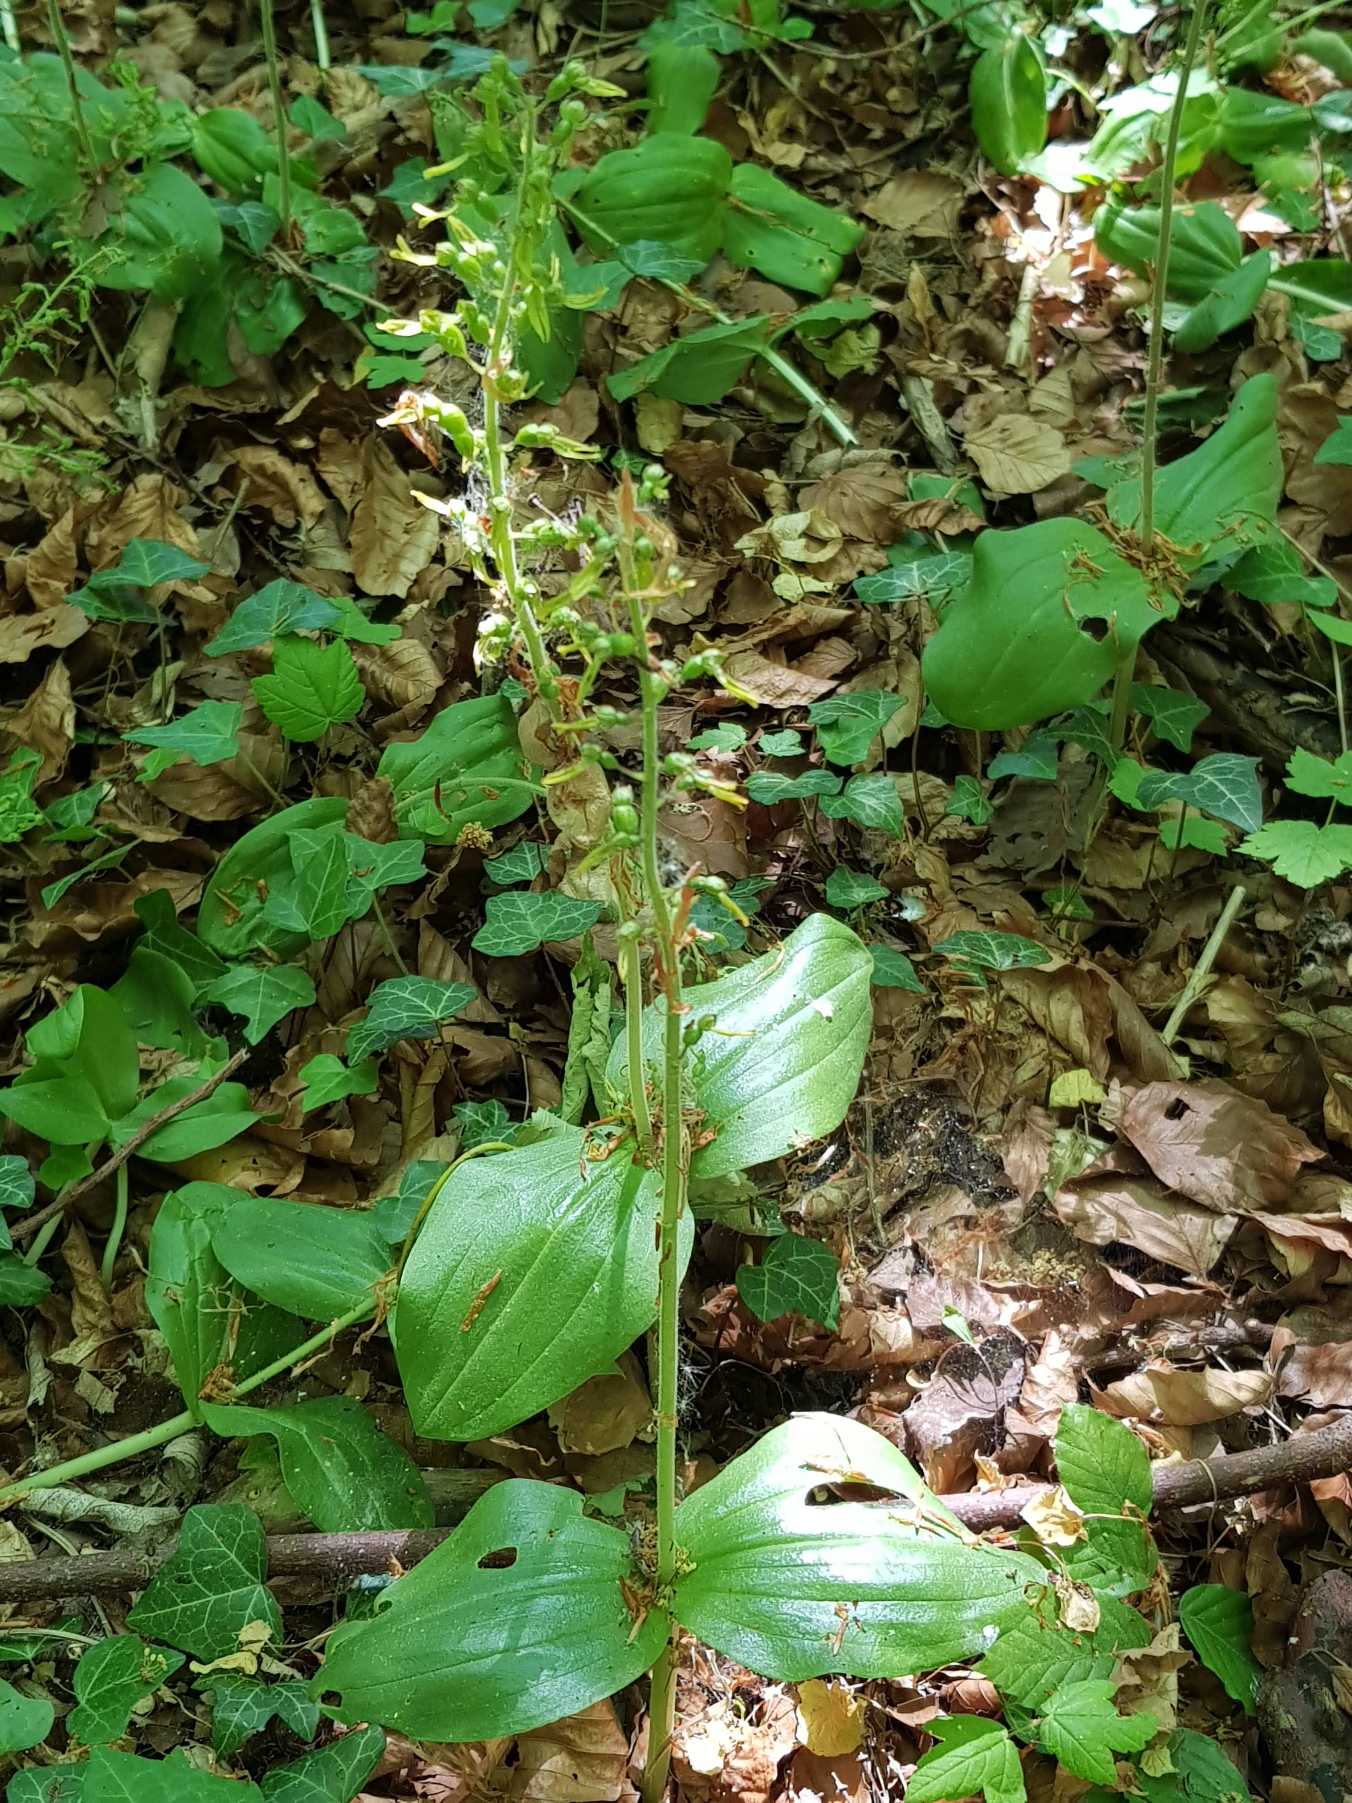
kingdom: Plantae
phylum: Tracheophyta
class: Liliopsida
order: Asparagales
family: Orchidaceae
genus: Neottia
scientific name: Neottia ovata
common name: Ægbladet fliglæbe
